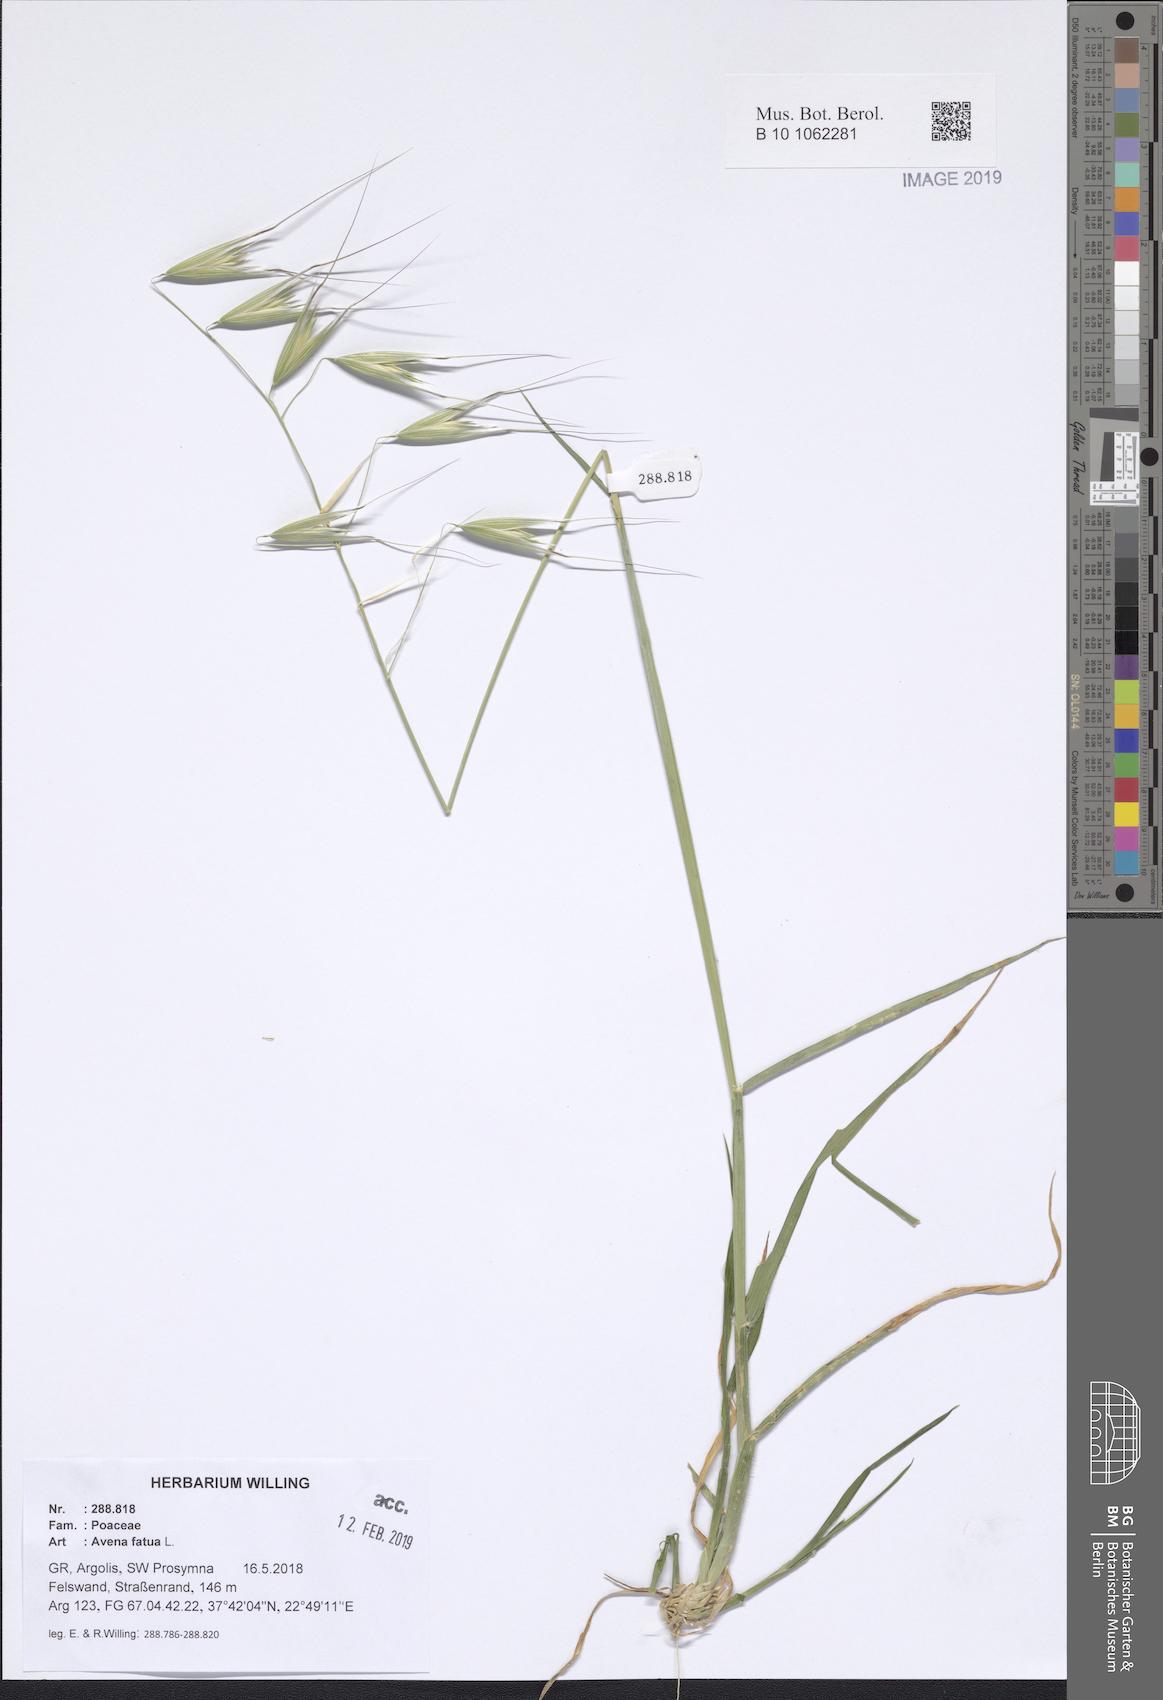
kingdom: Plantae
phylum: Tracheophyta
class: Liliopsida
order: Poales
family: Poaceae
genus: Avena
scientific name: Avena fatua
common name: Wild oat
